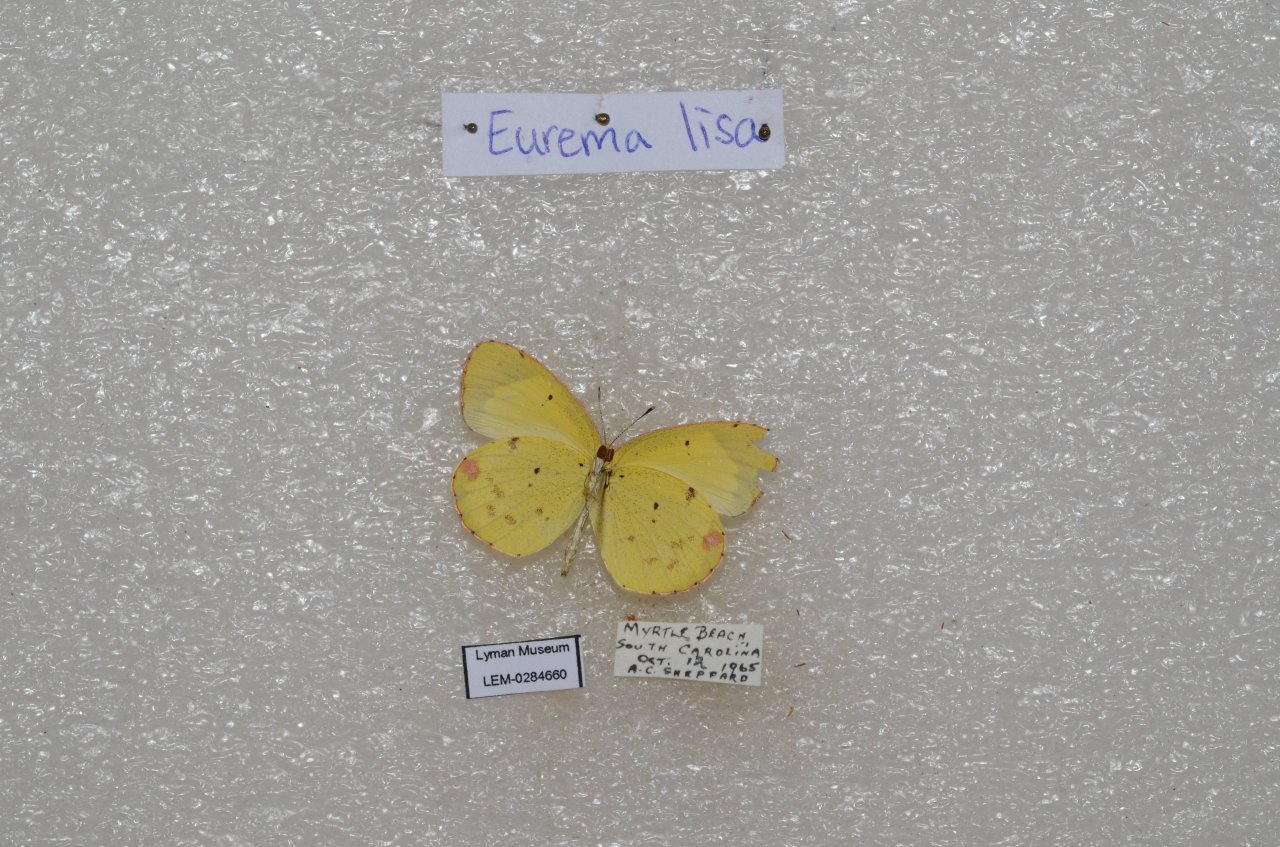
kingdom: Animalia
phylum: Arthropoda
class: Insecta
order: Lepidoptera
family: Pieridae
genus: Pyrisitia
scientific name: Pyrisitia lisa
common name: Little Yellow
